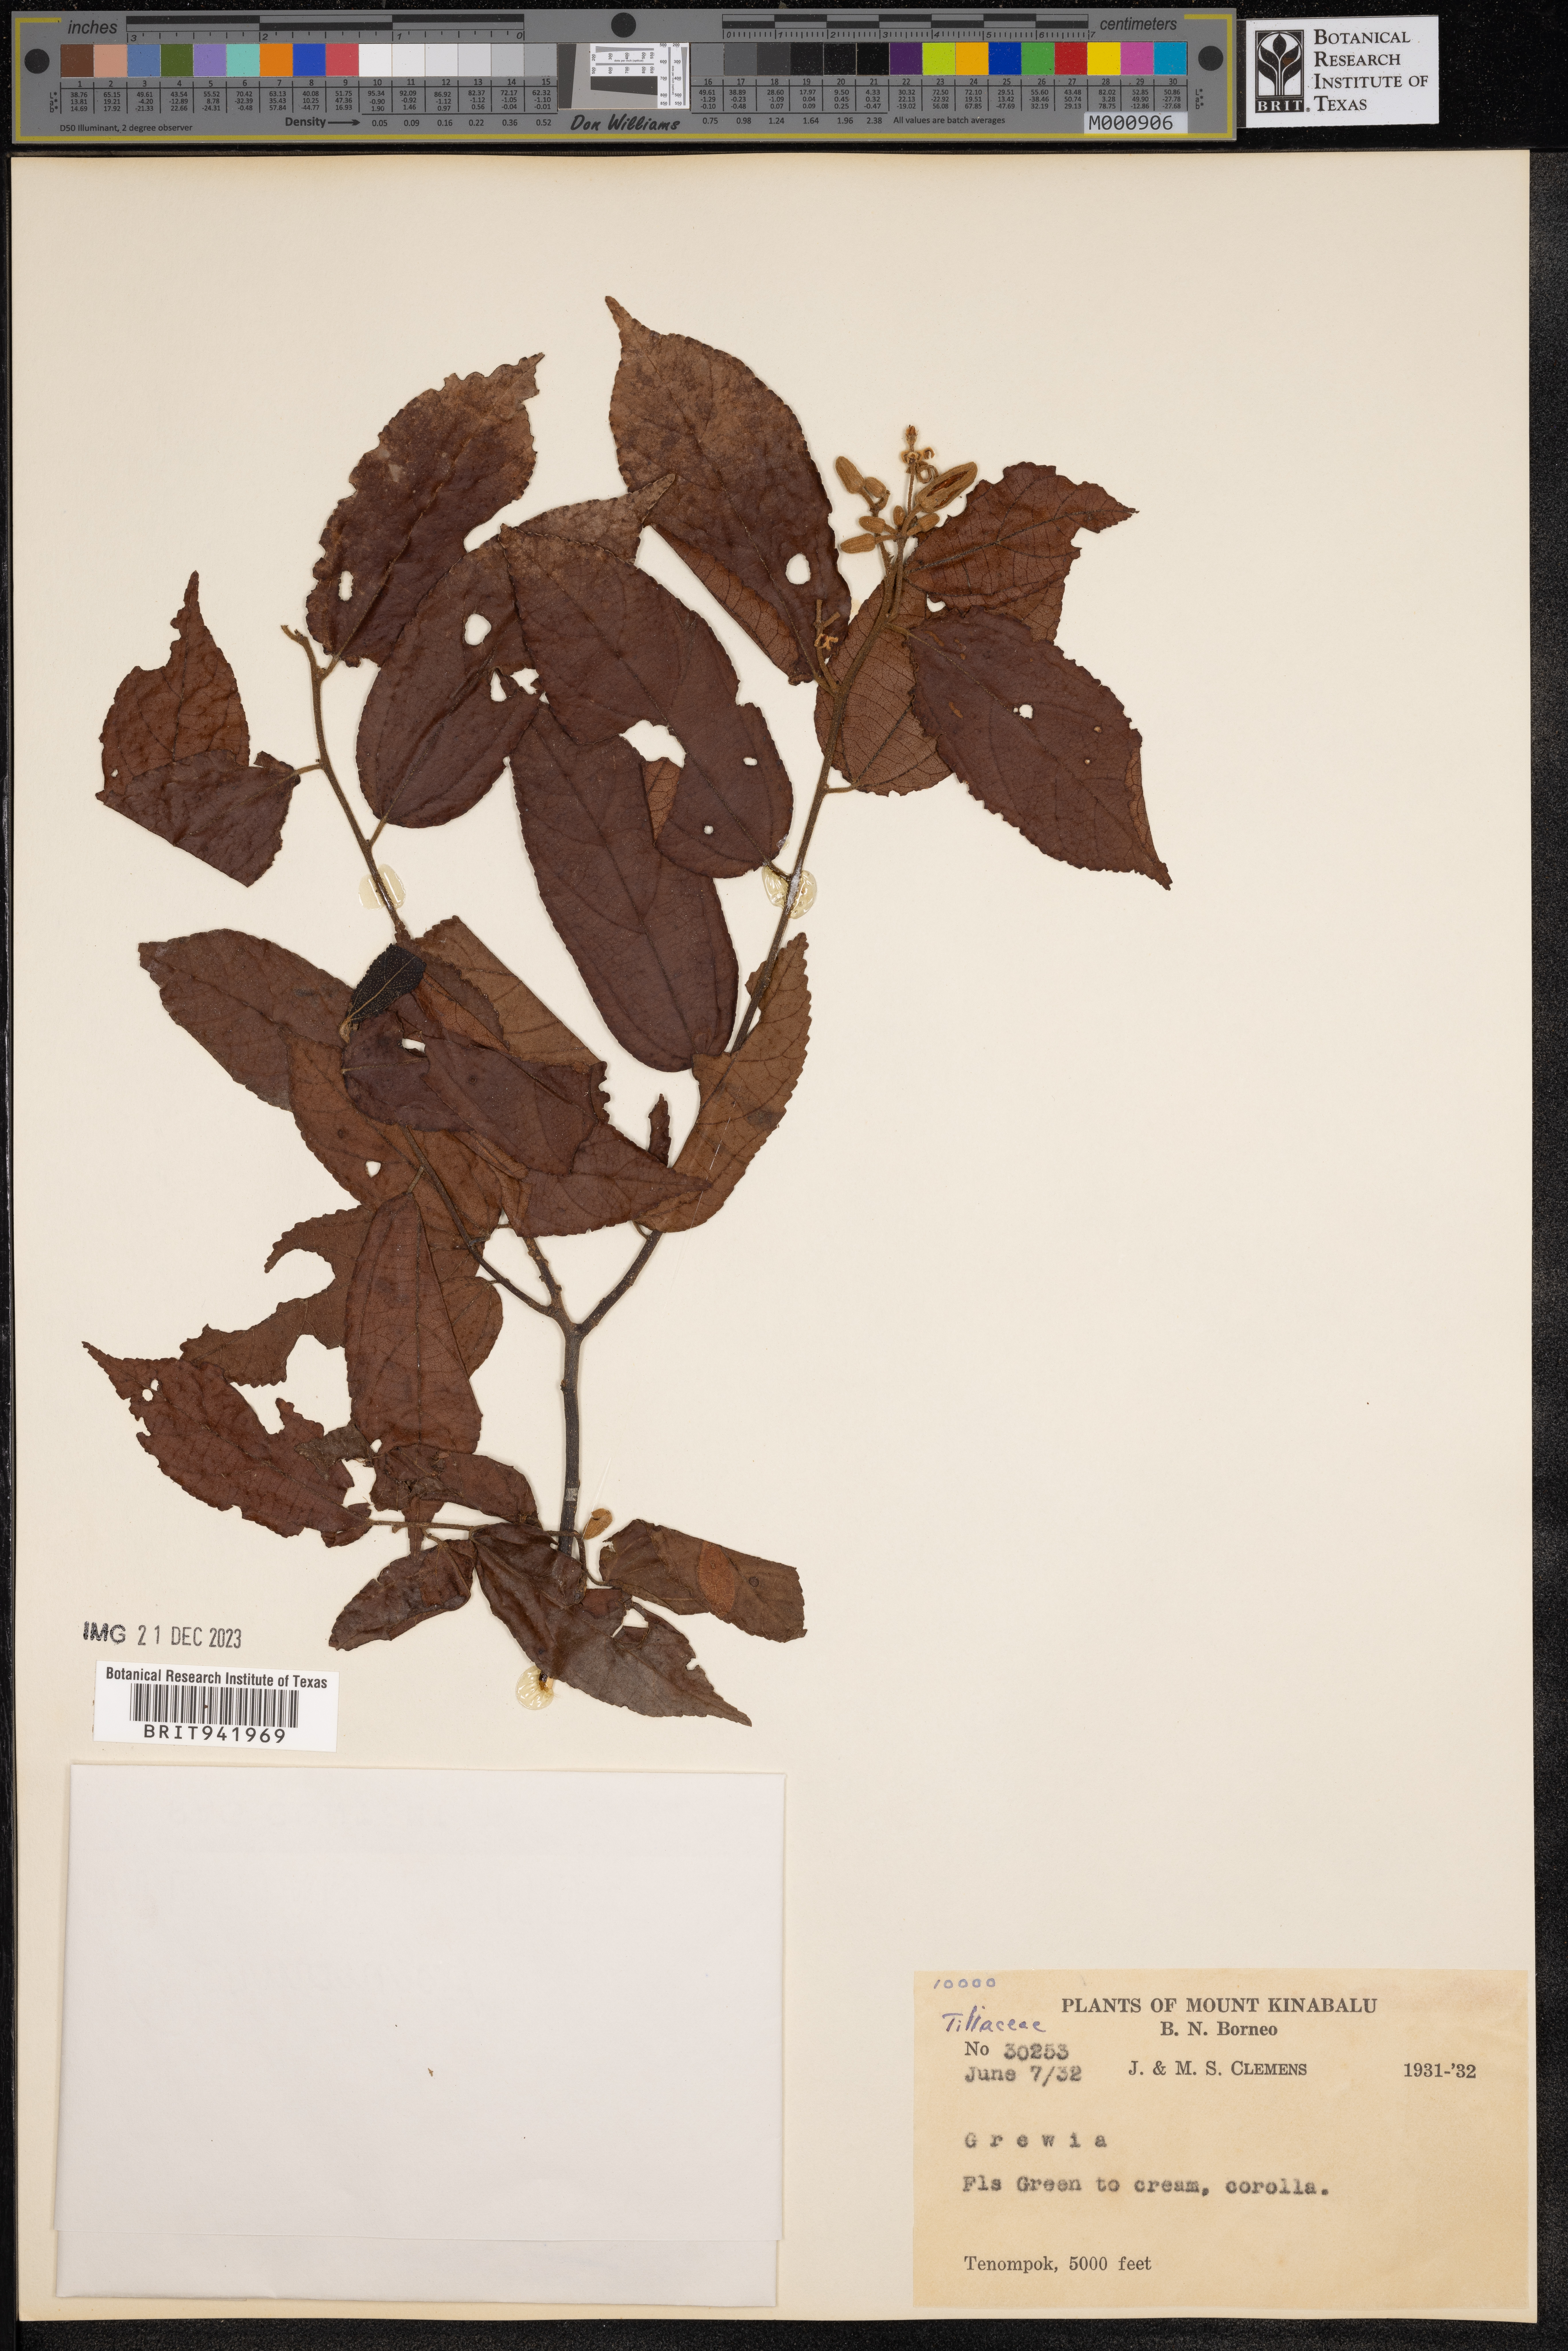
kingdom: Plantae
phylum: Tracheophyta
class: Magnoliopsida
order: Malvales
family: Malvaceae
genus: Grewia
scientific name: Grewia
